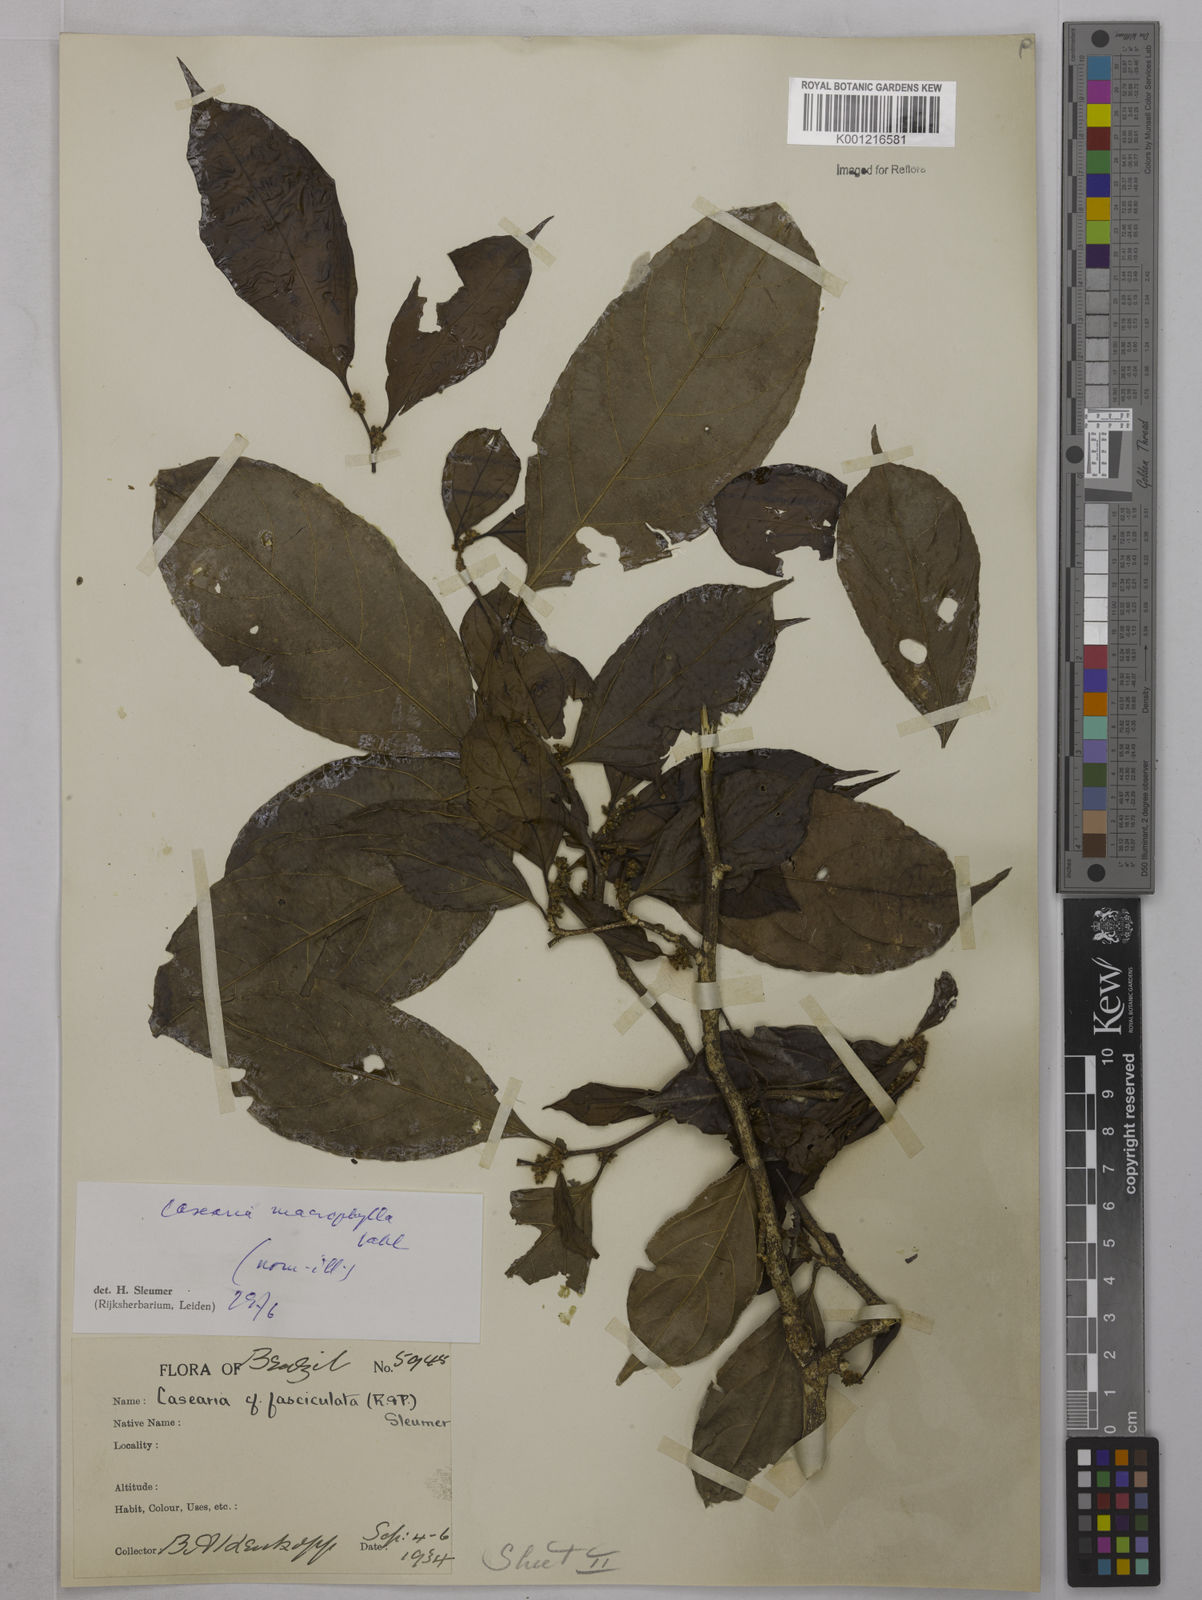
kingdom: Plantae
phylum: Tracheophyta
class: Magnoliopsida
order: Malpighiales
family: Salicaceae
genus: Casearia
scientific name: Casearia pitumba
